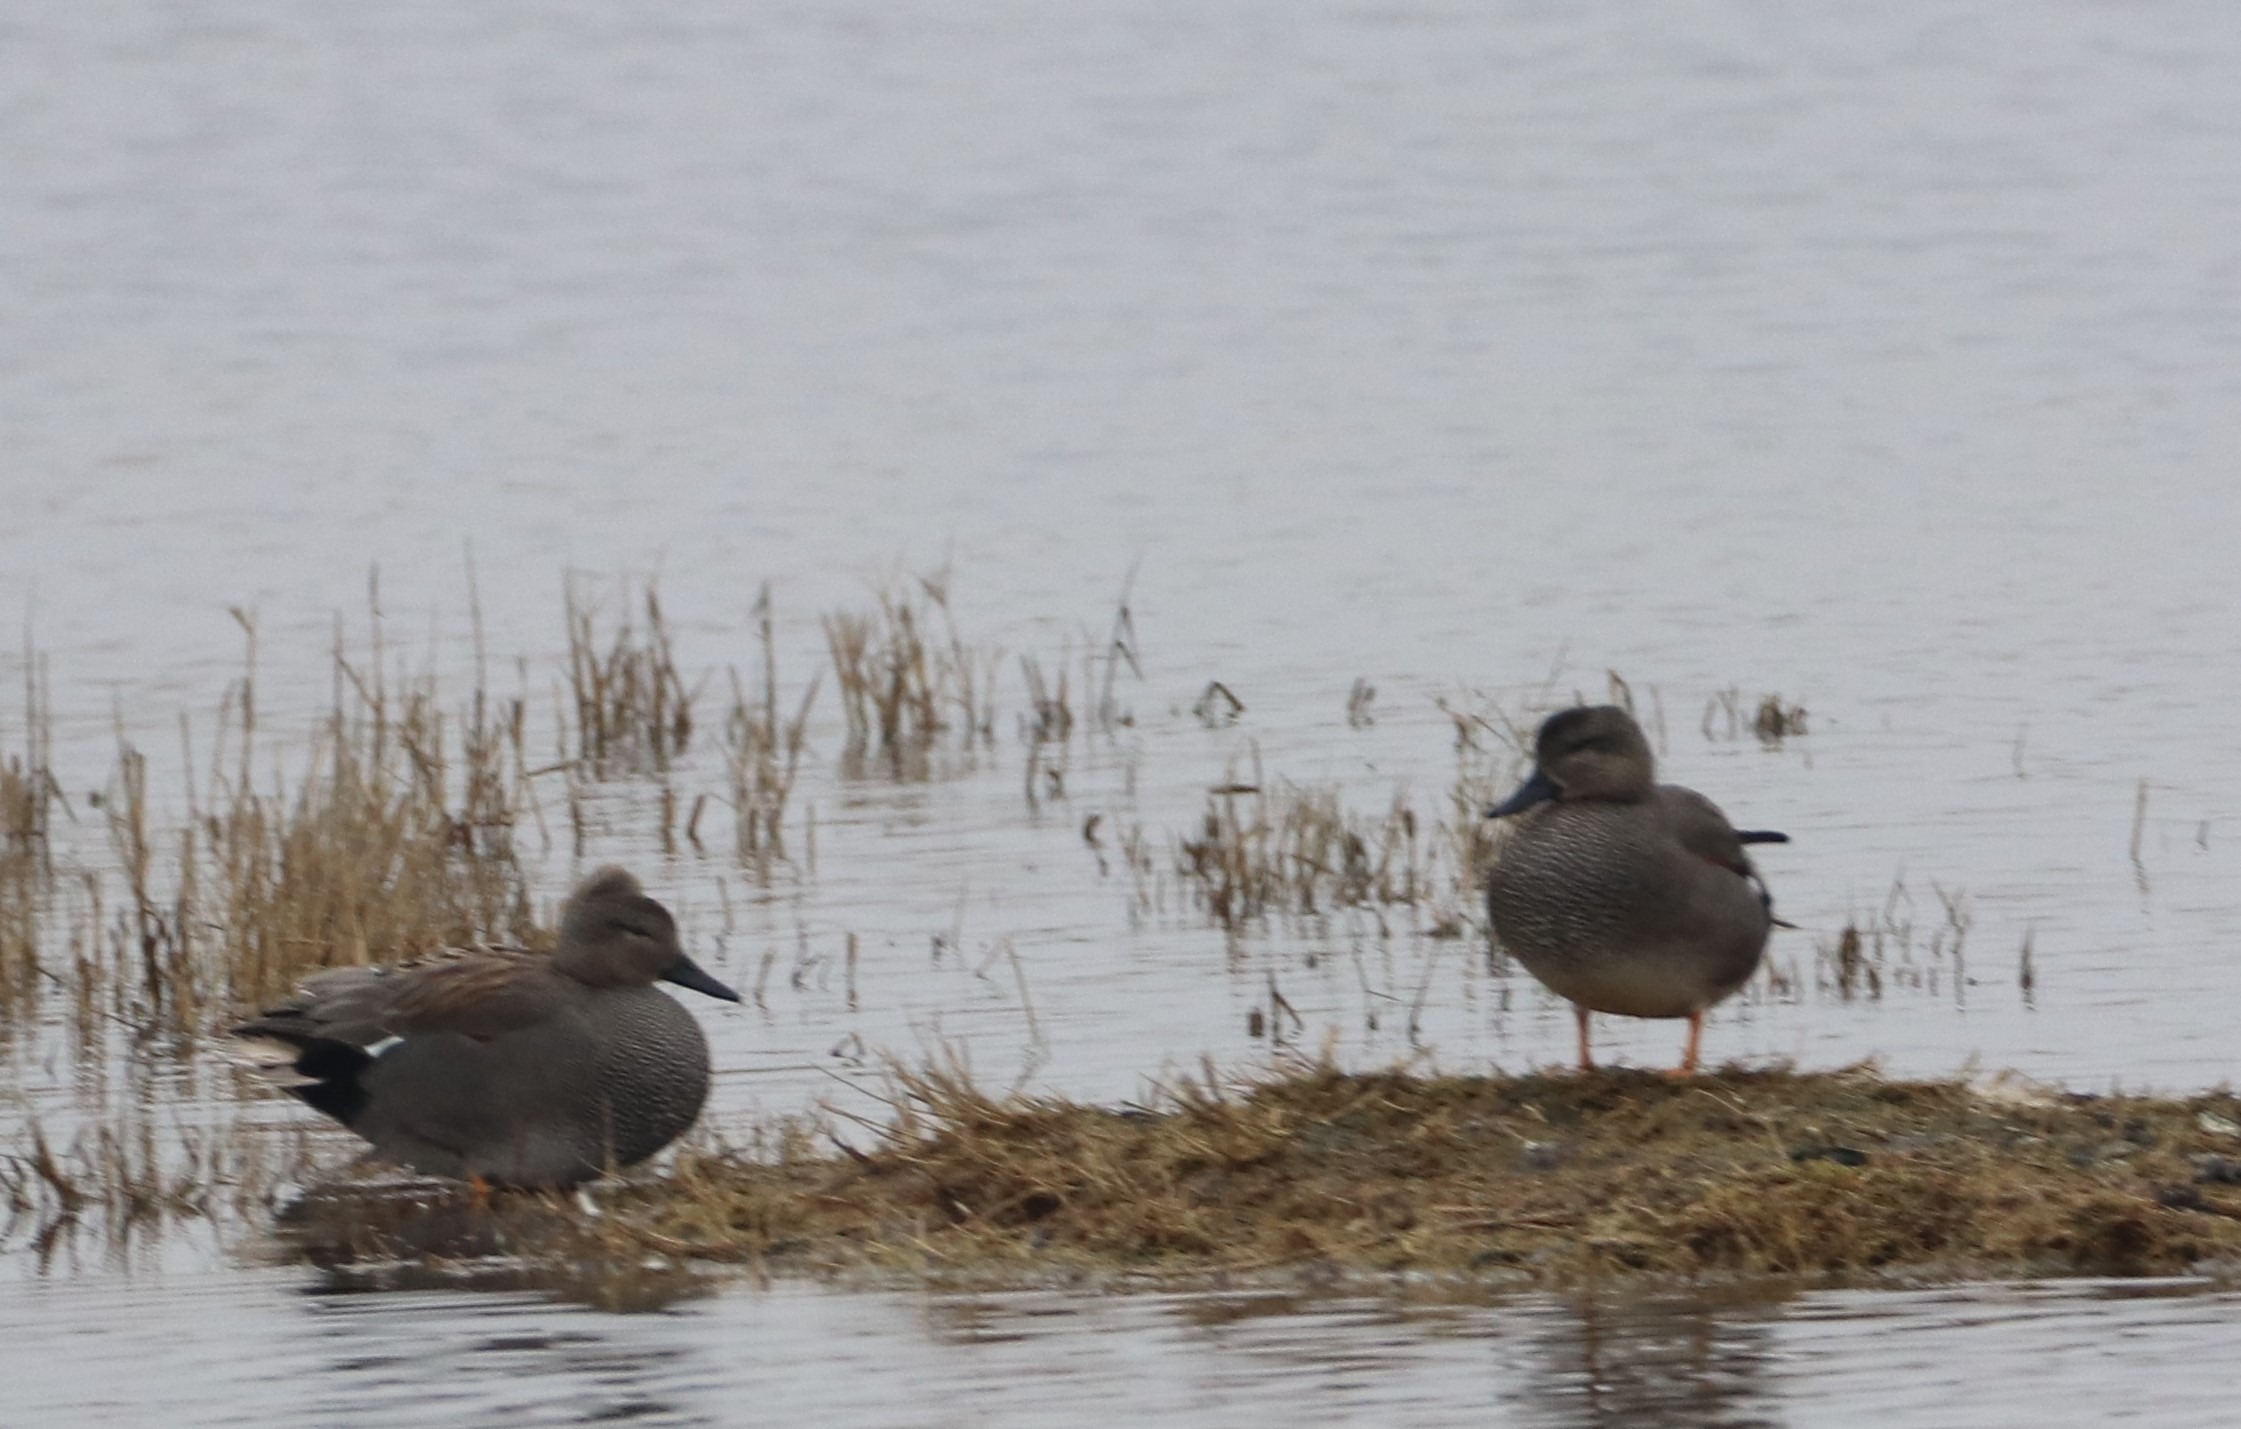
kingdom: Animalia
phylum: Chordata
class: Aves
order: Anseriformes
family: Anatidae
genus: Mareca
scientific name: Mareca strepera
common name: Knarand
